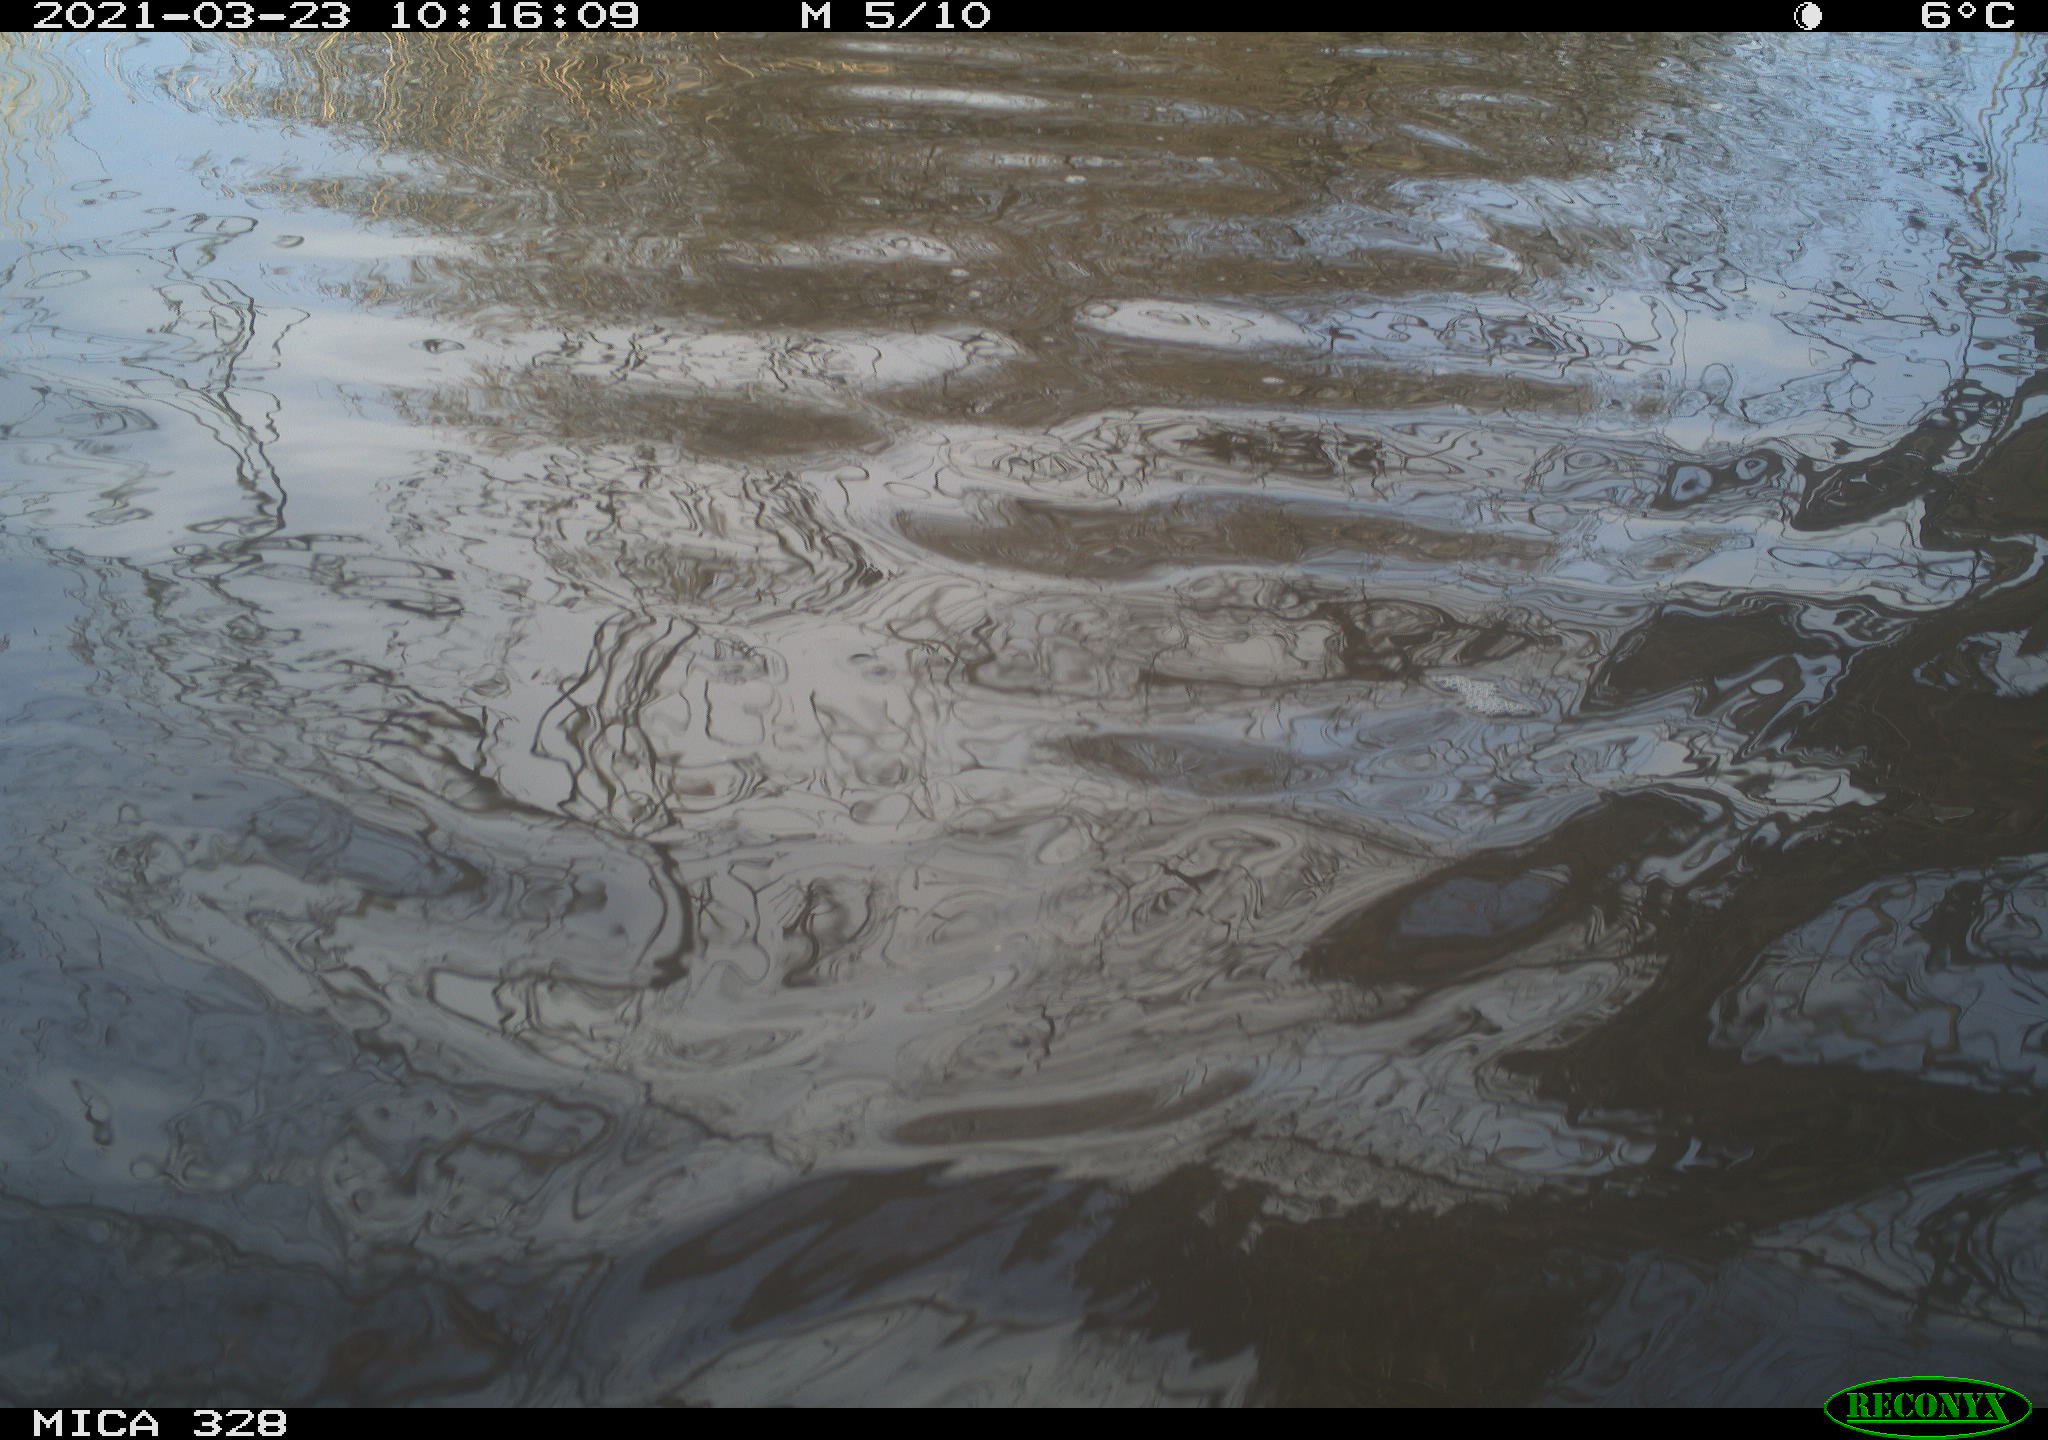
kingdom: Animalia
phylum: Chordata
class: Aves
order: Anseriformes
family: Anatidae
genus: Anas
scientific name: Anas platyrhynchos
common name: Mallard
